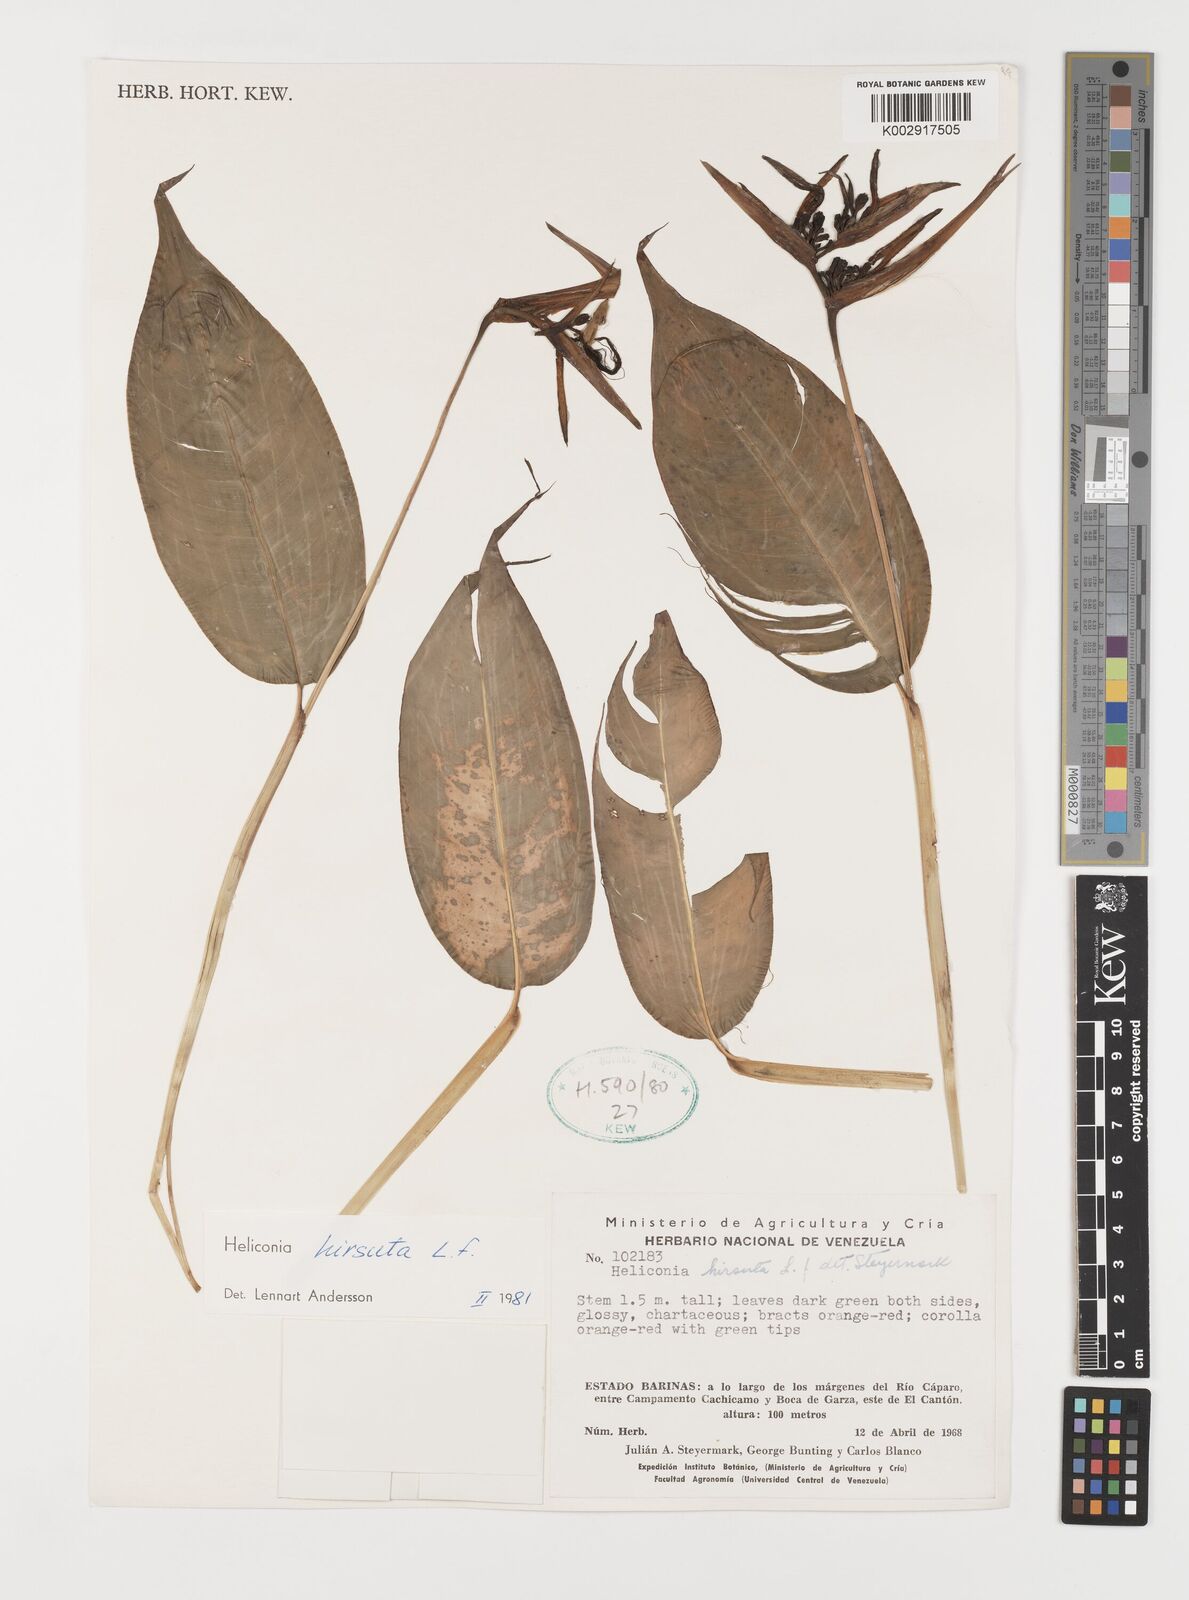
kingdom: Plantae
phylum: Tracheophyta
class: Liliopsida
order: Zingiberales
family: Heliconiaceae
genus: Heliconia
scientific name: Heliconia hirsuta
